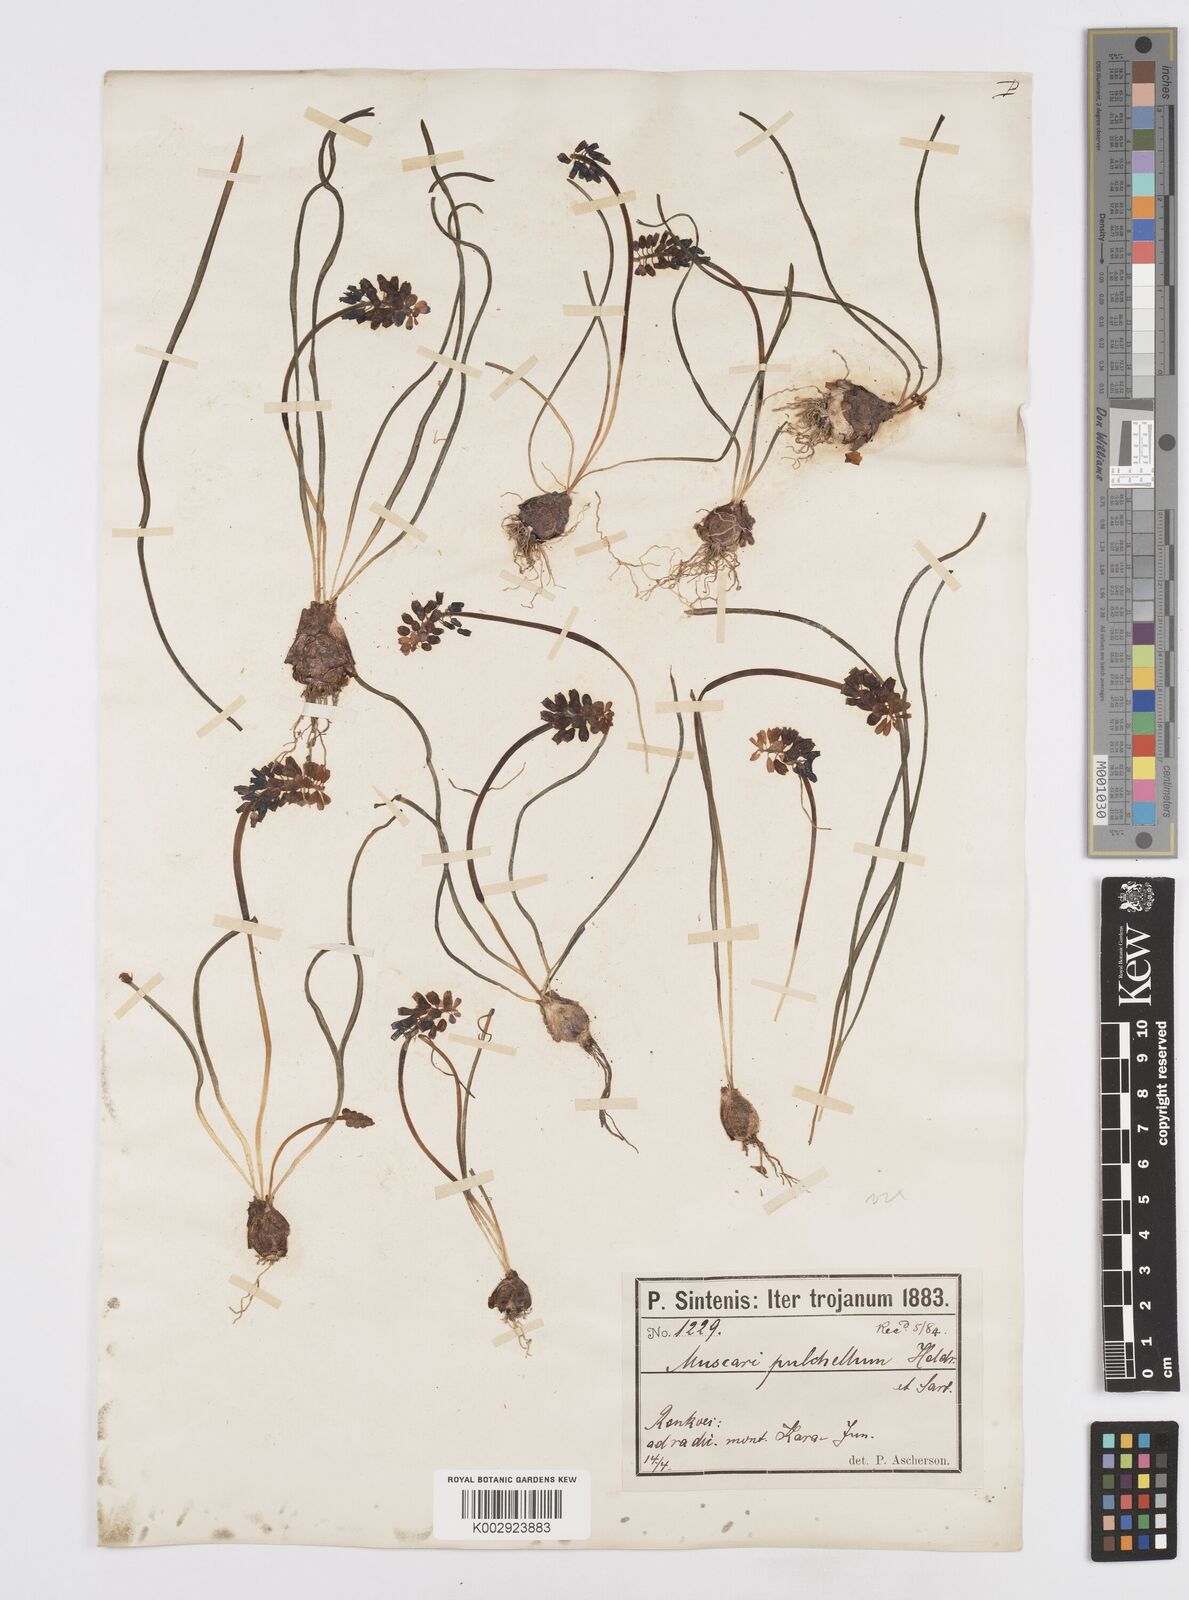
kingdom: Plantae
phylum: Tracheophyta
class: Liliopsida
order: Asparagales
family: Asparagaceae
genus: Muscari
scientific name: Muscari pulchellum
